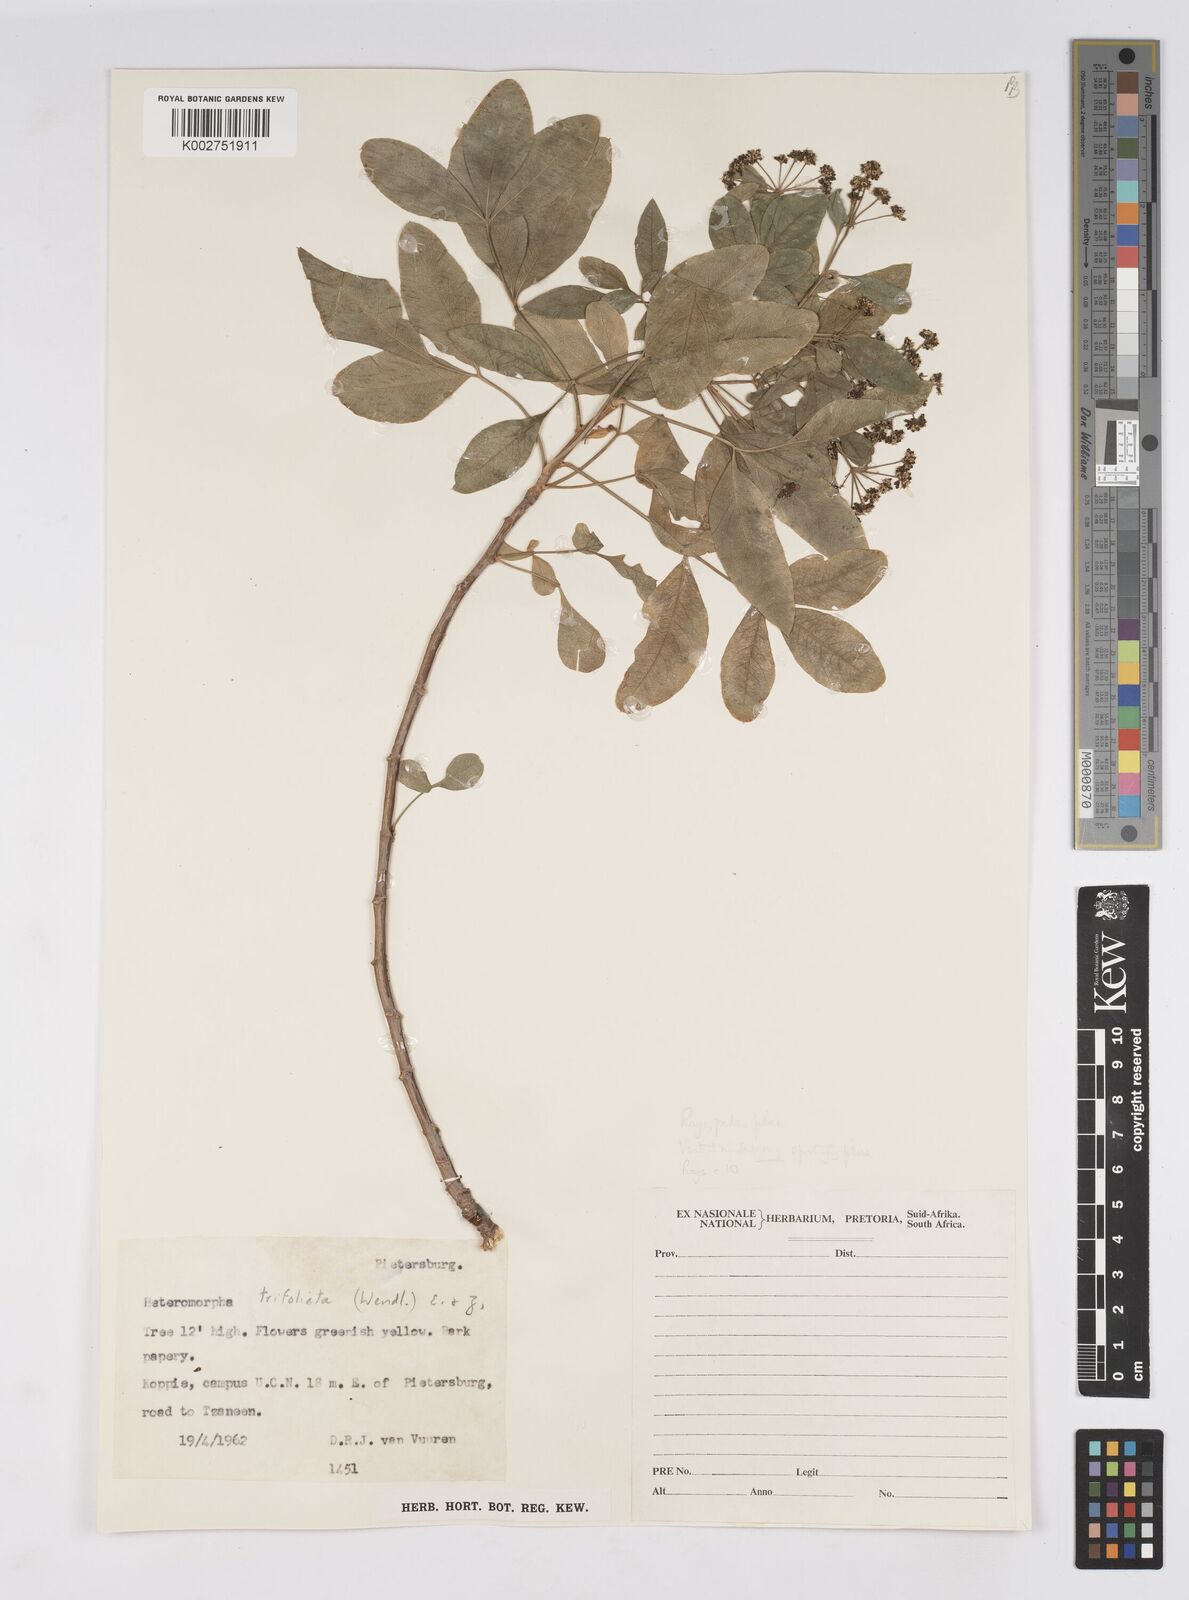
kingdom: Plantae
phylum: Tracheophyta
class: Magnoliopsida
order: Apiales
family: Apiaceae
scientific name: Apiaceae
